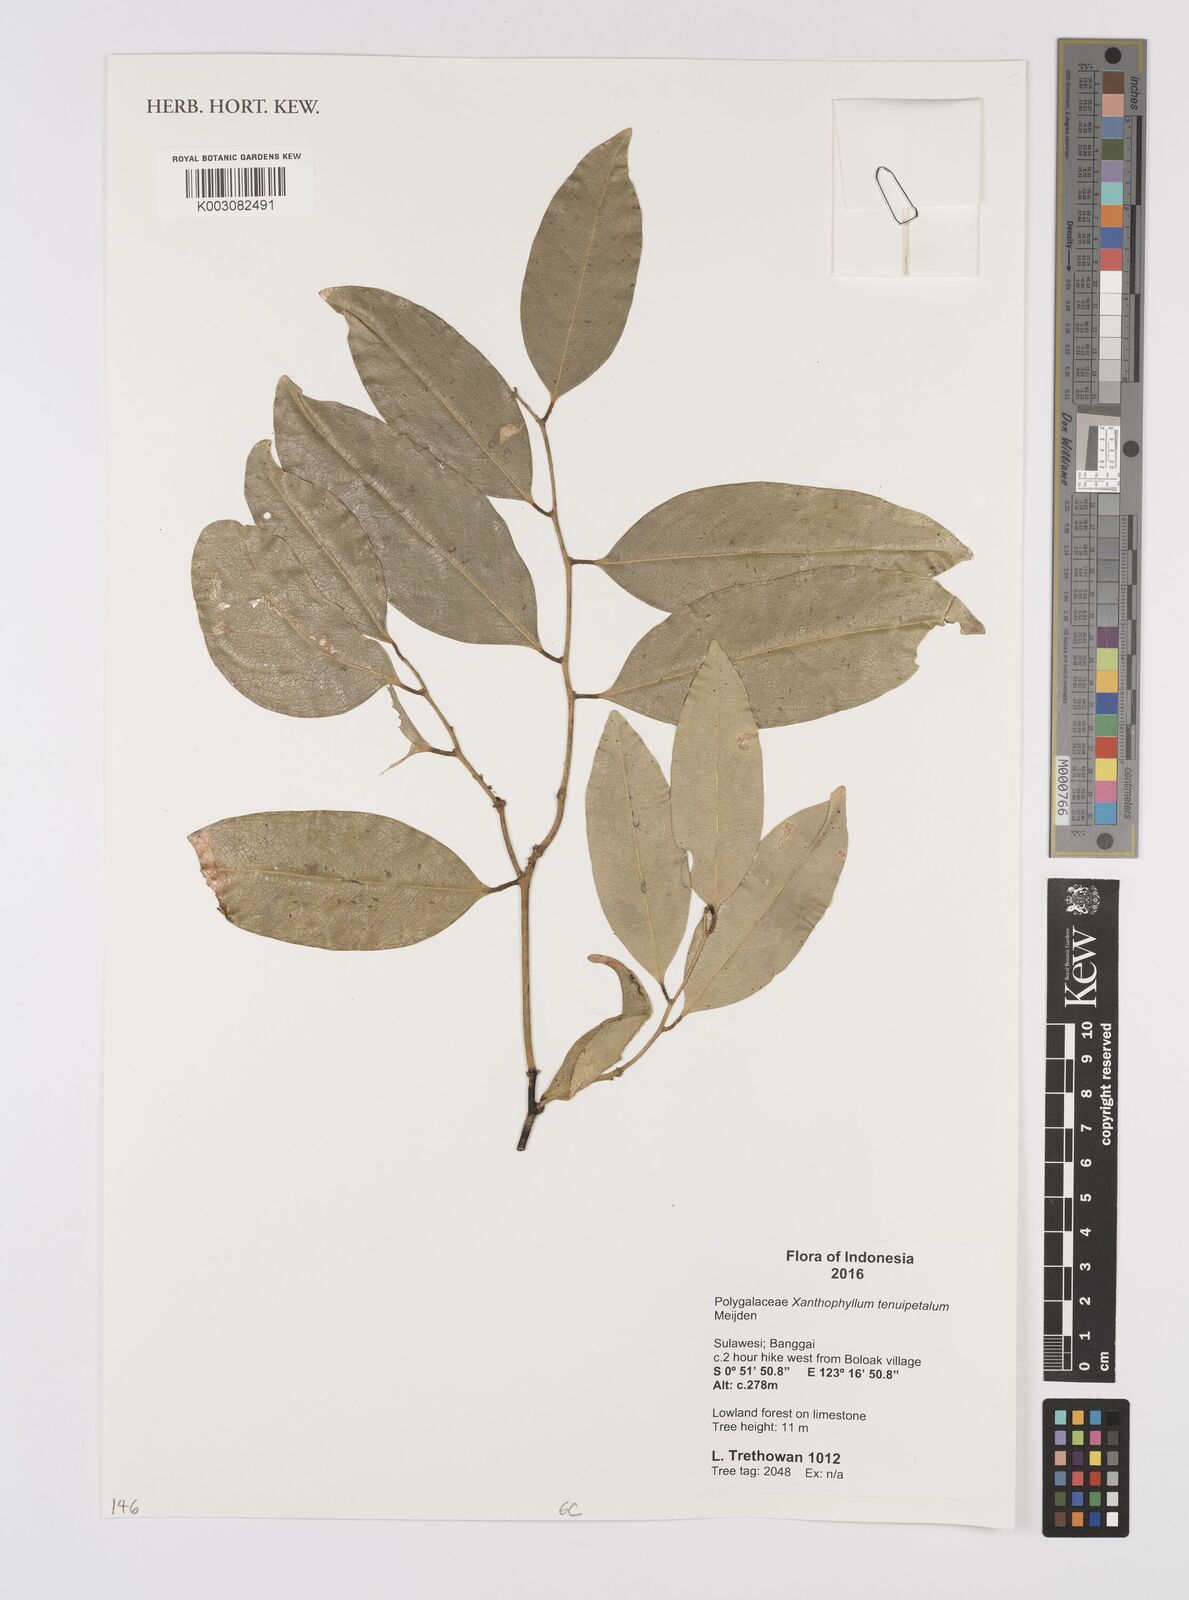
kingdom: Plantae
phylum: Tracheophyta
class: Magnoliopsida
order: Fabales
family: Polygalaceae
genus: Xanthophyllum
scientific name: Xanthophyllum tenuipetalum
